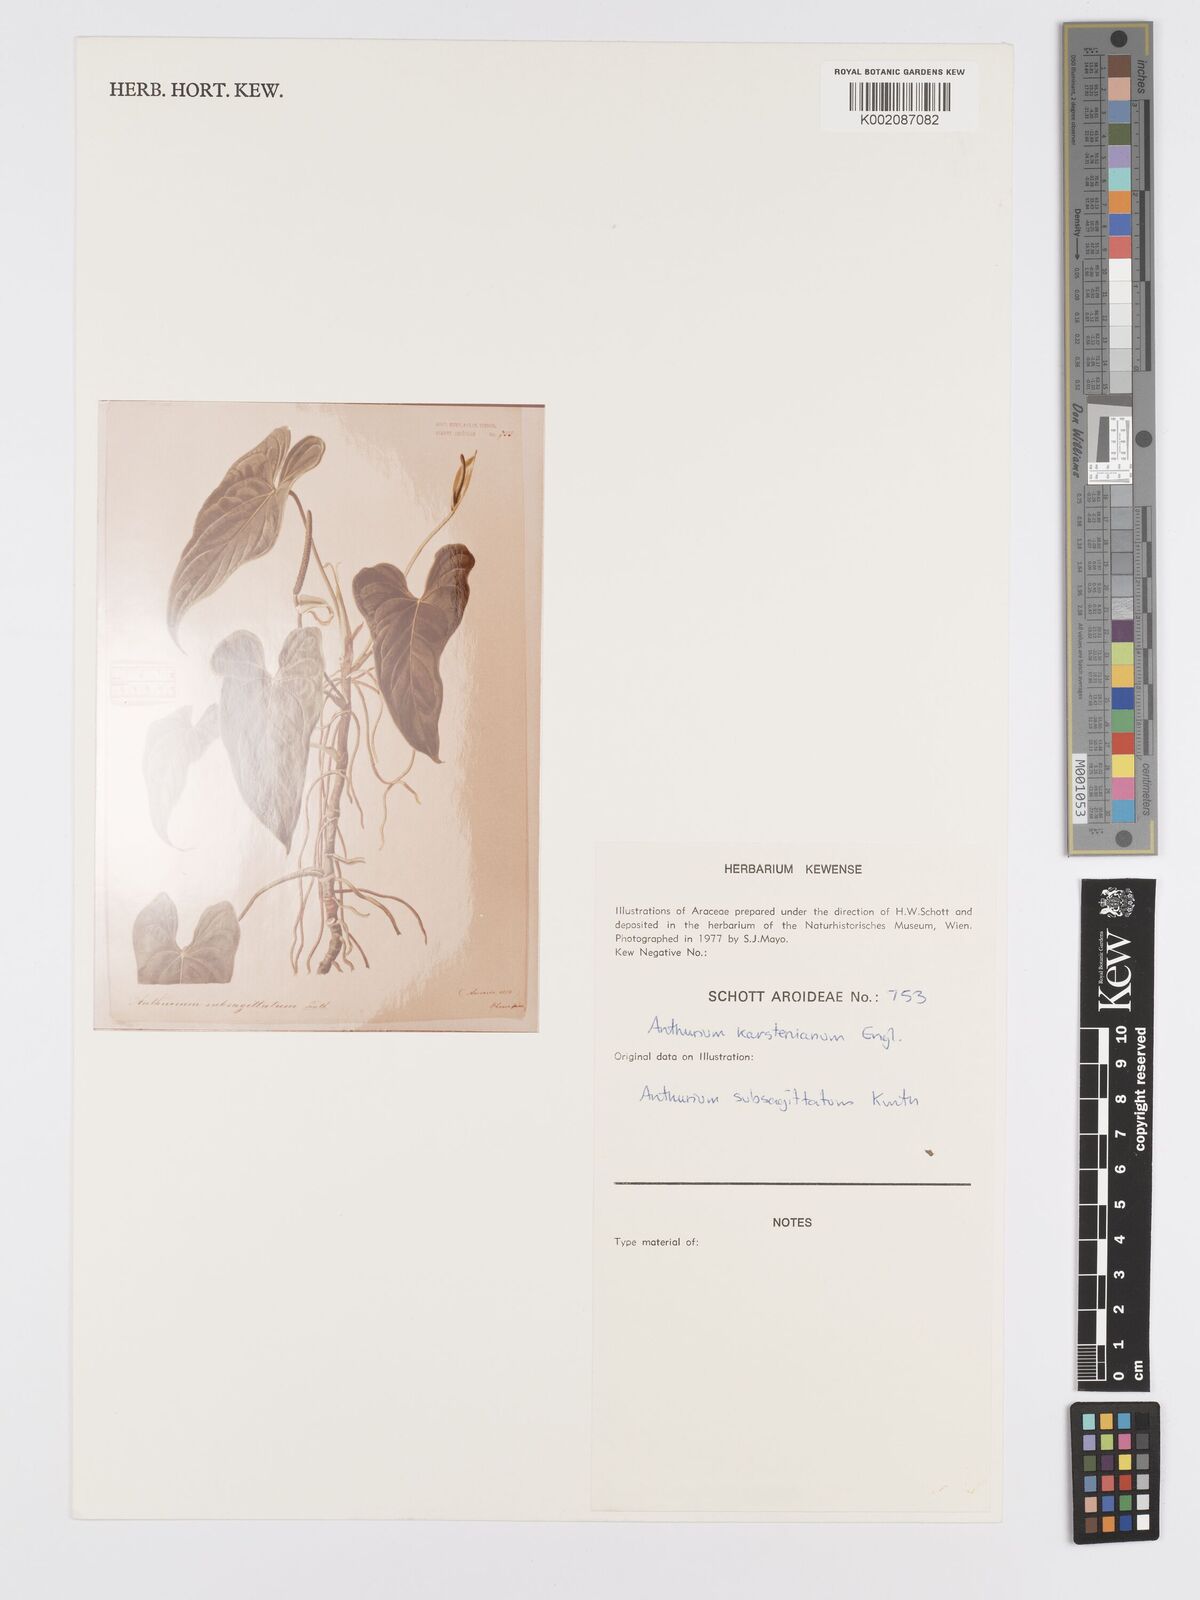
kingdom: Plantae
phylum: Tracheophyta
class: Liliopsida
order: Alismatales
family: Araceae
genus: Anthurium
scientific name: Anthurium subsagittatum
